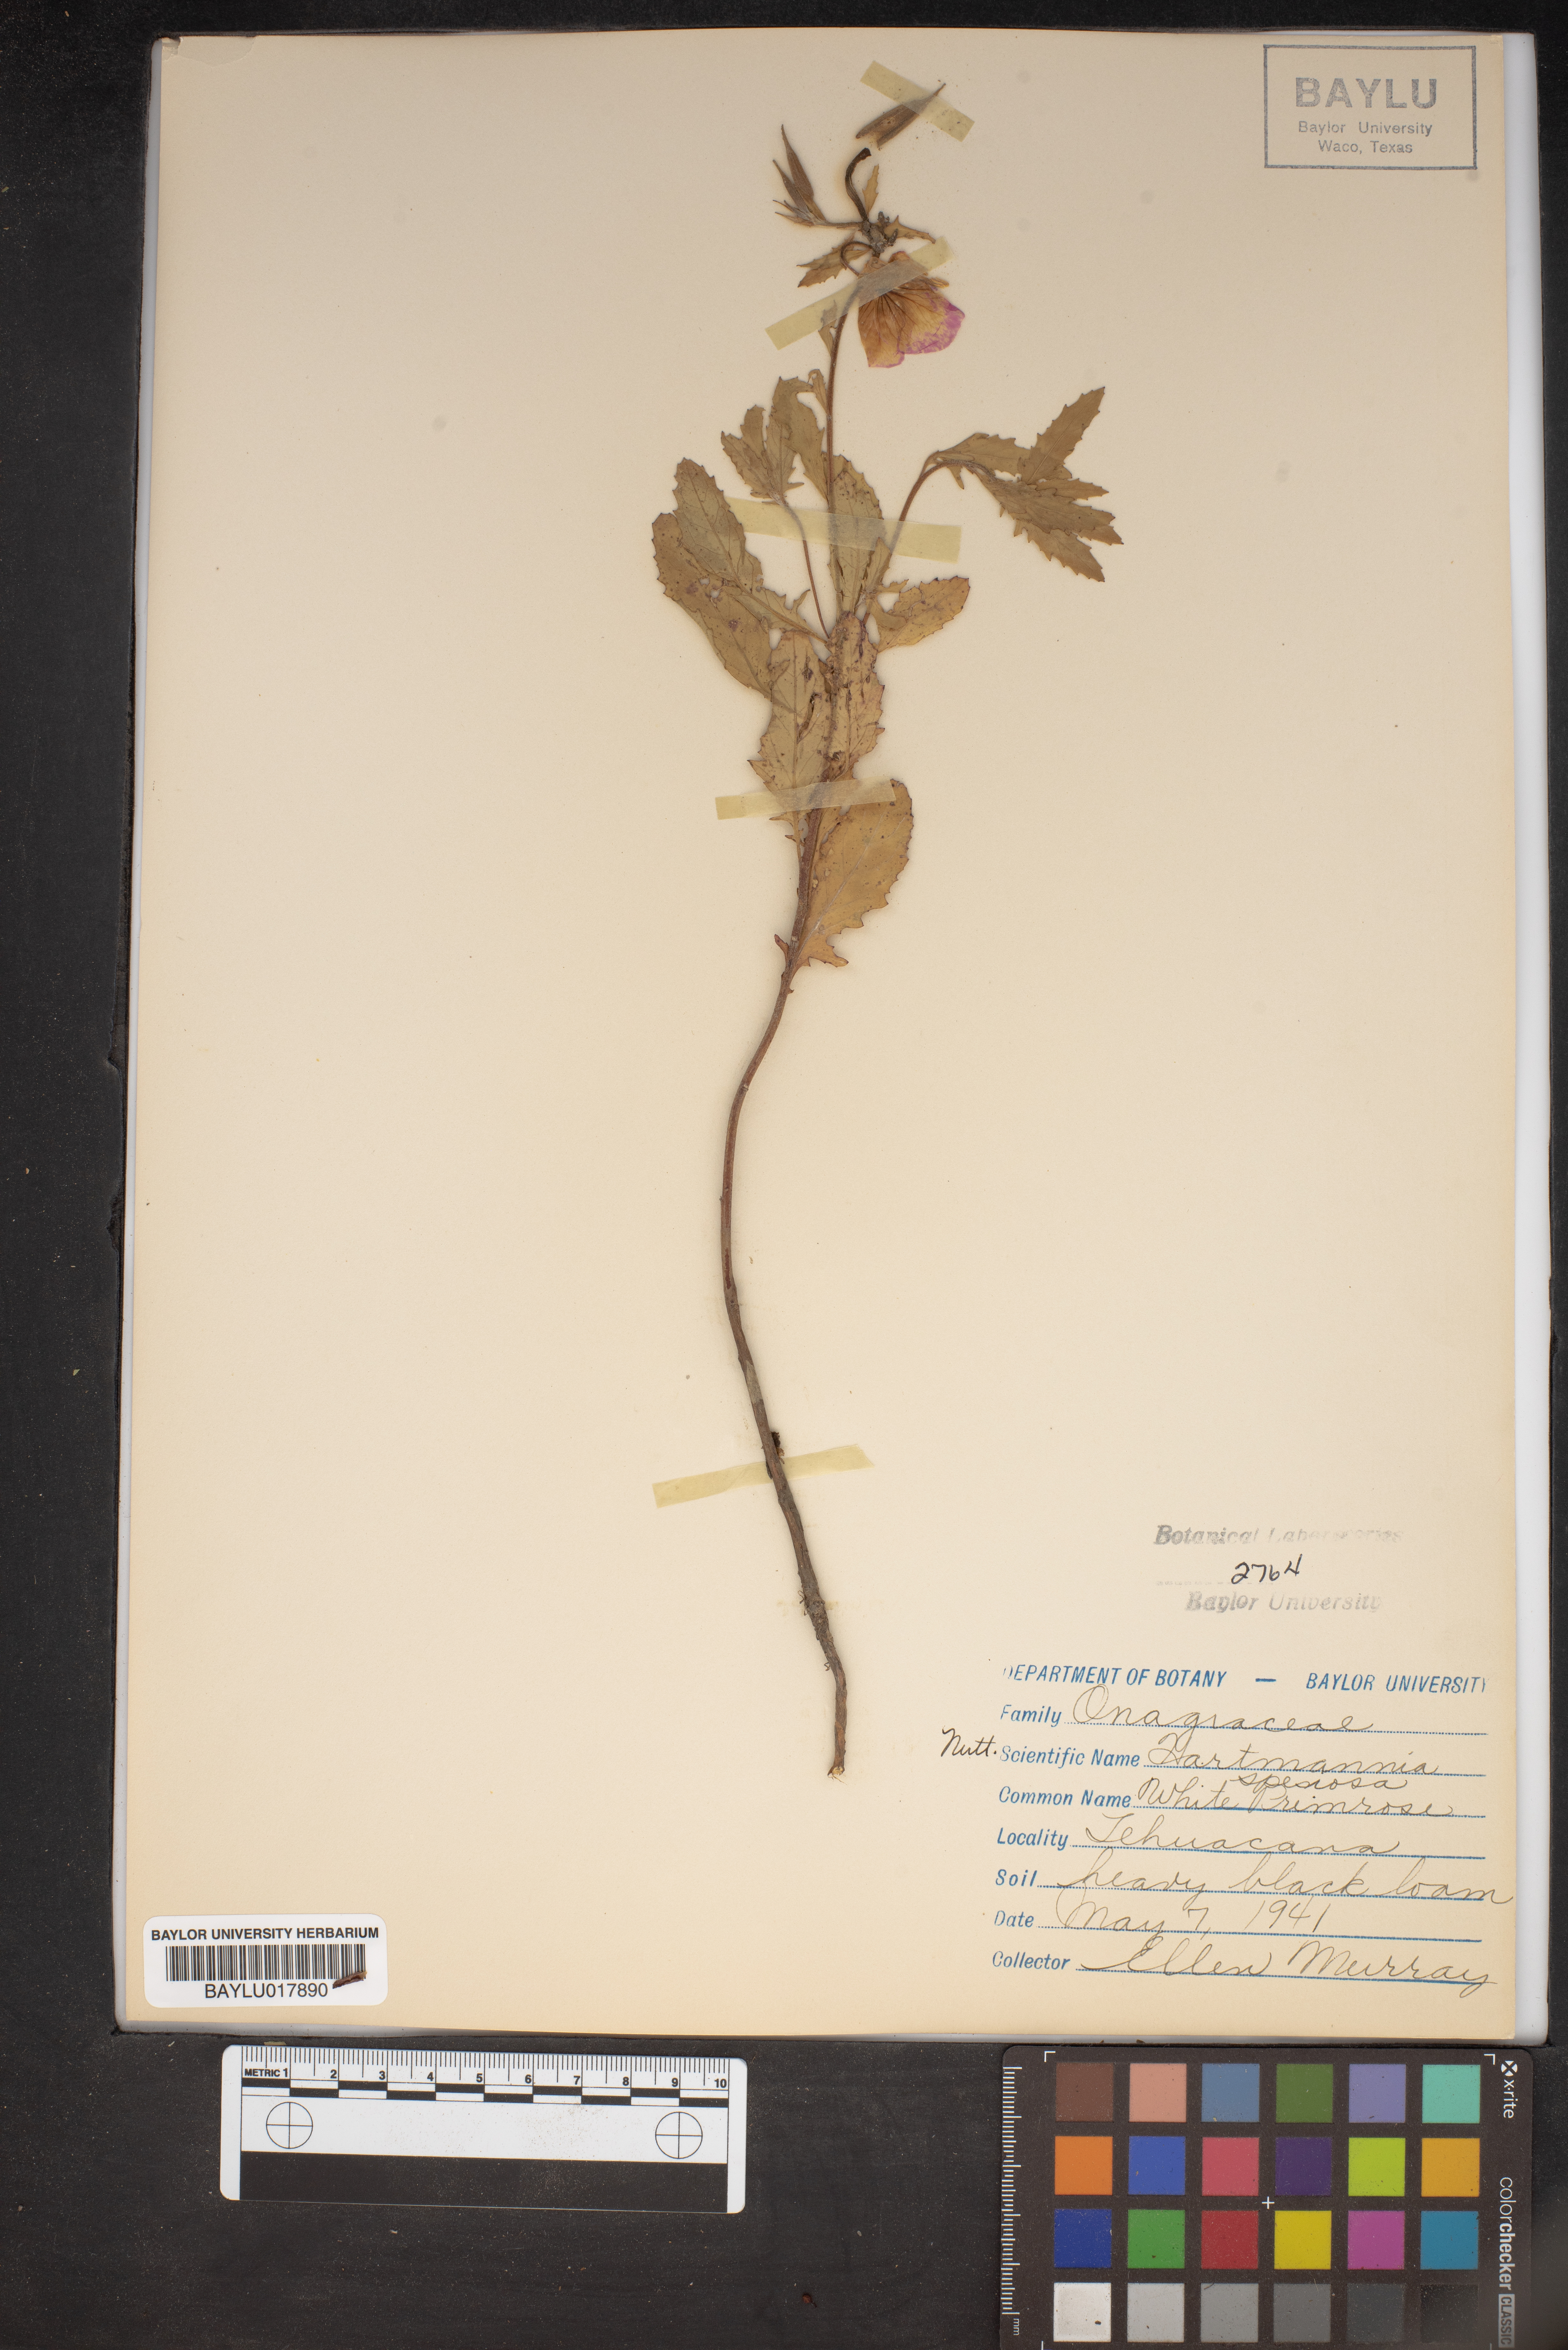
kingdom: Plantae
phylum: Tracheophyta
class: Magnoliopsida
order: Myrtales
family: Onagraceae
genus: Oenothera
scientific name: Oenothera speciosa
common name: White evening-primrose
